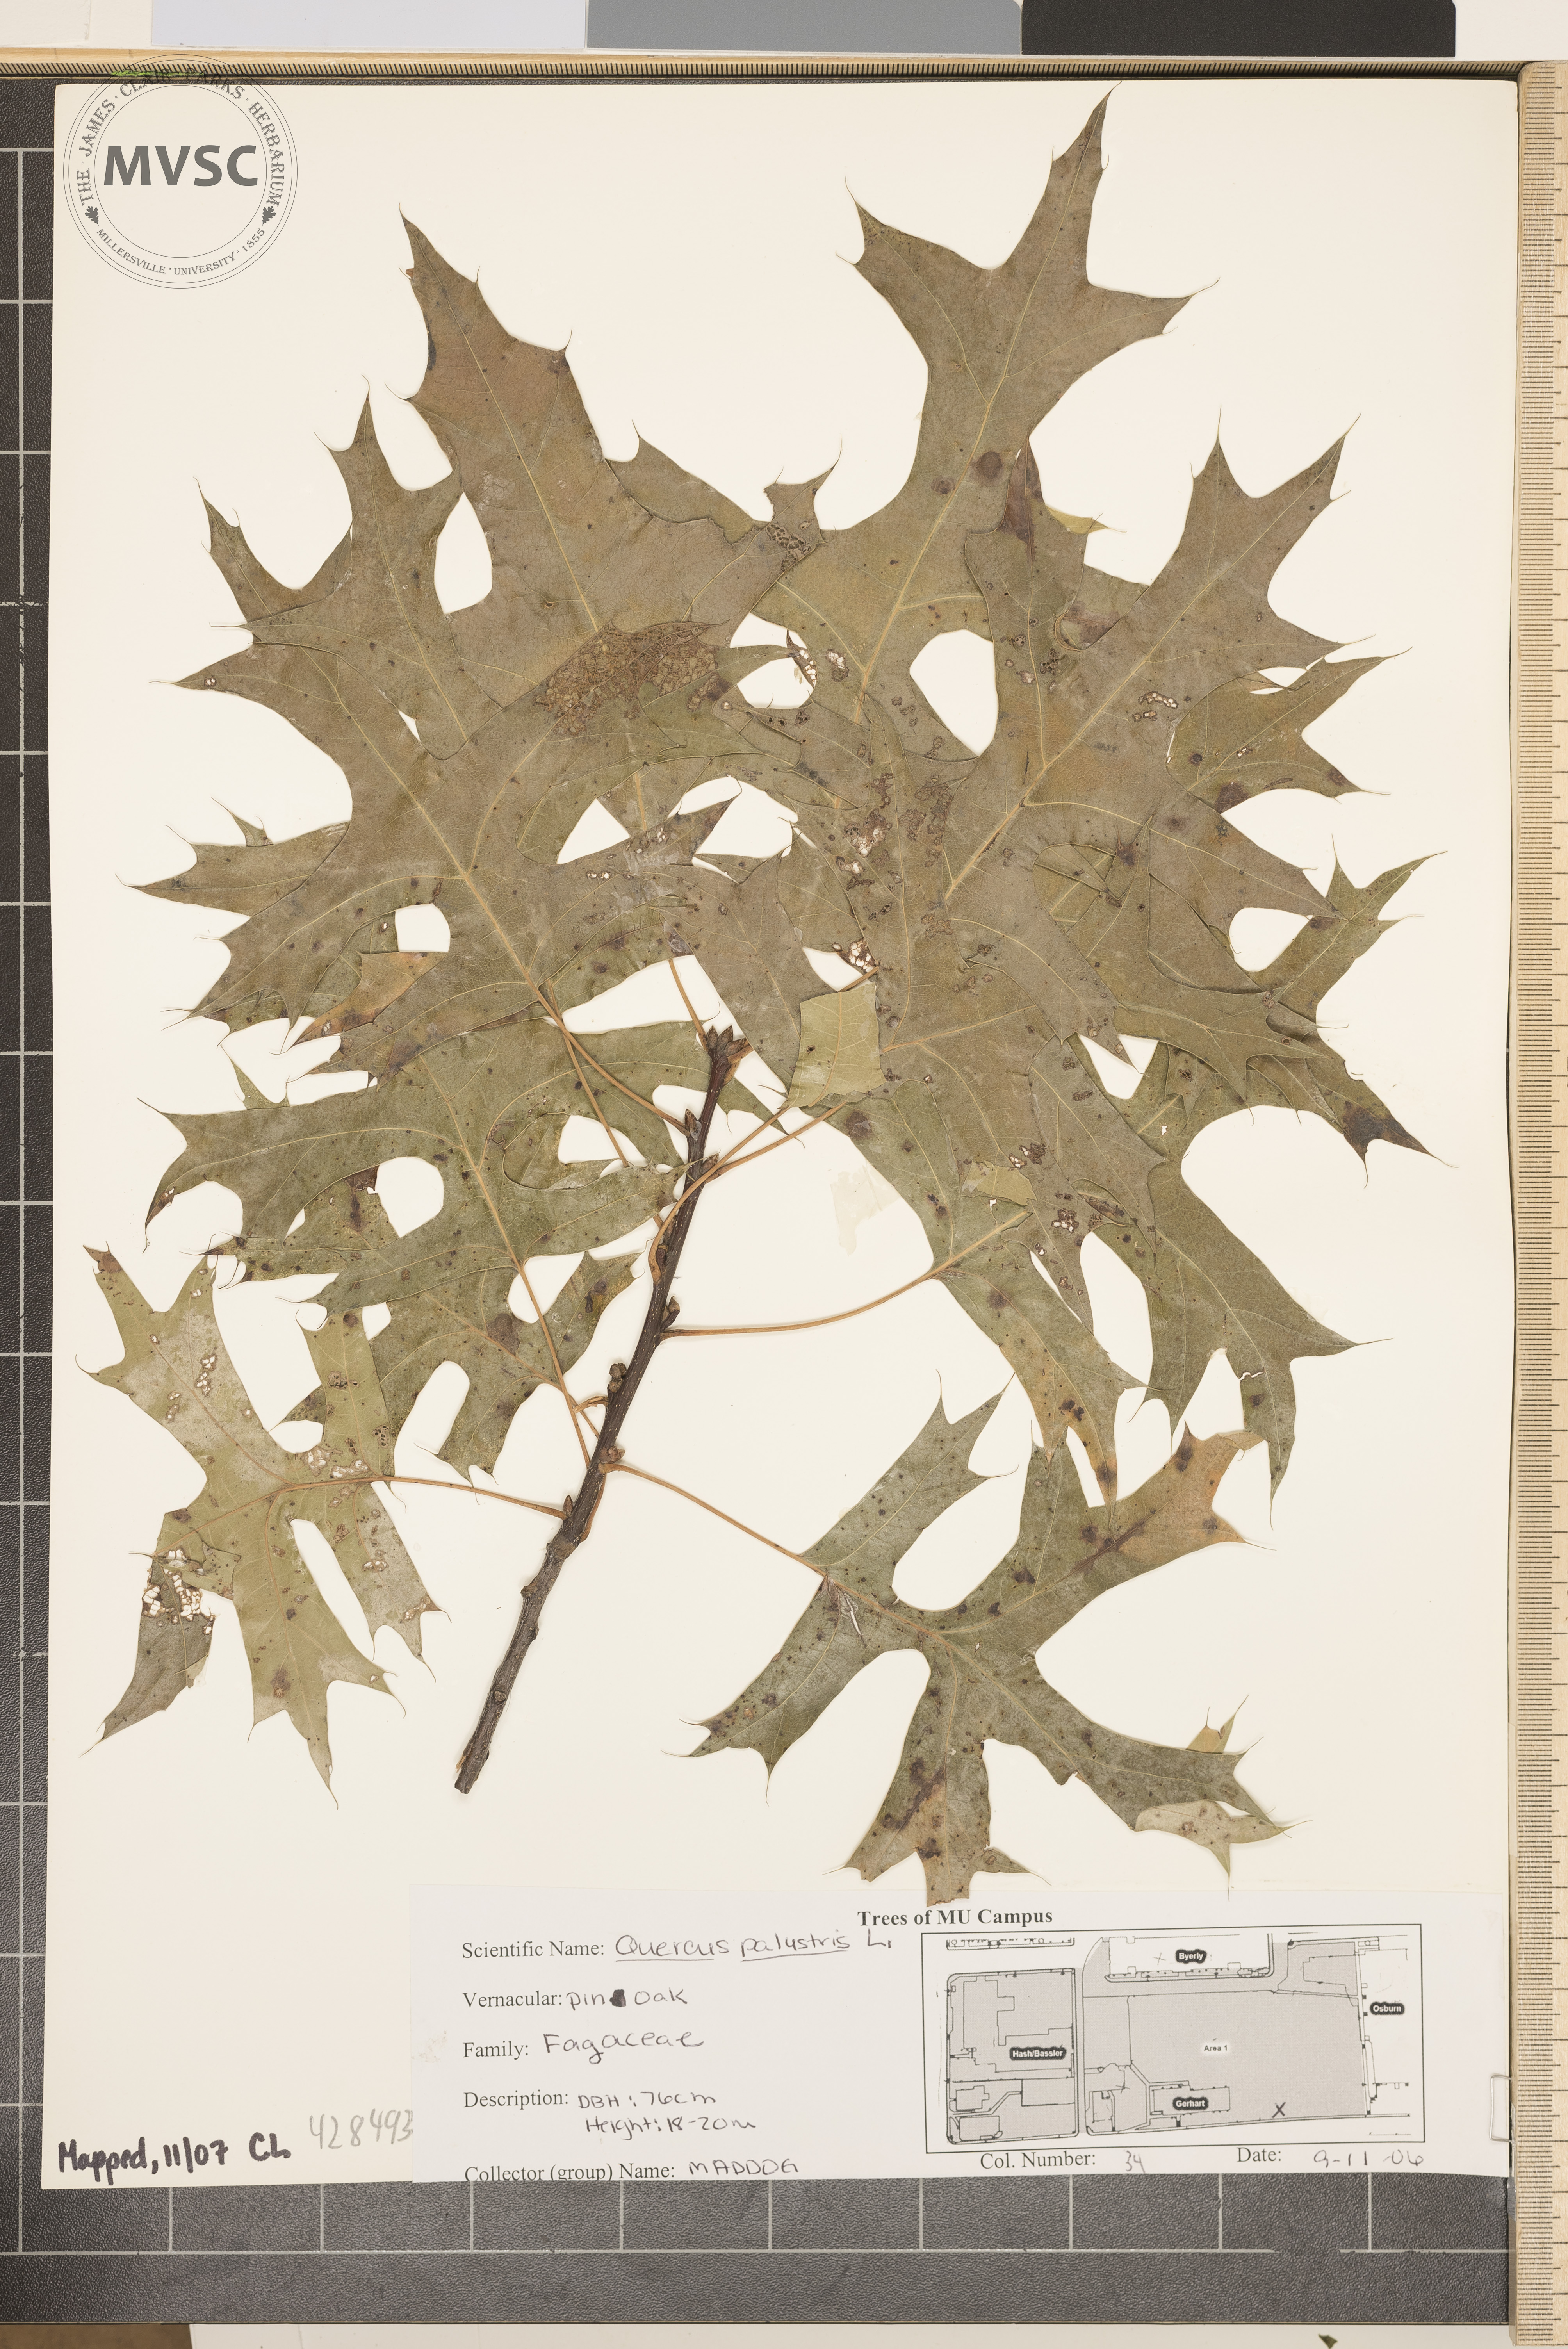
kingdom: Plantae
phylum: Tracheophyta
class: Magnoliopsida
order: Fagales
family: Fagaceae
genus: Quercus
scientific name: Quercus palustris
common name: Pin Oak
